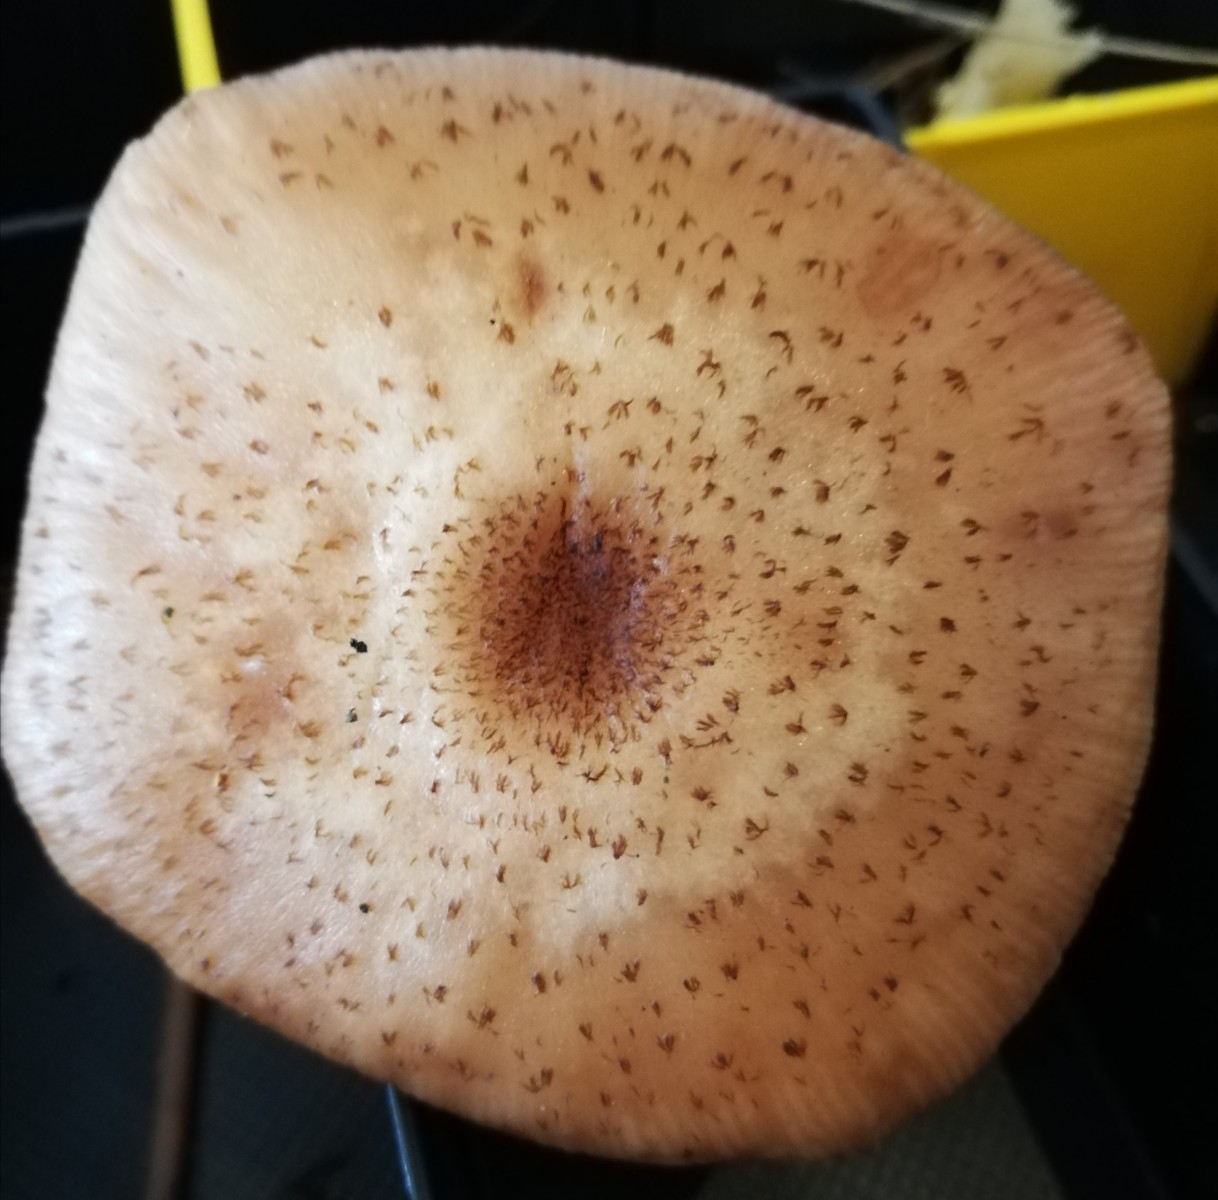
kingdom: Fungi
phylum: Basidiomycota
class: Agaricomycetes
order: Agaricales
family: Physalacriaceae
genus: Armillaria
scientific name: Armillaria
